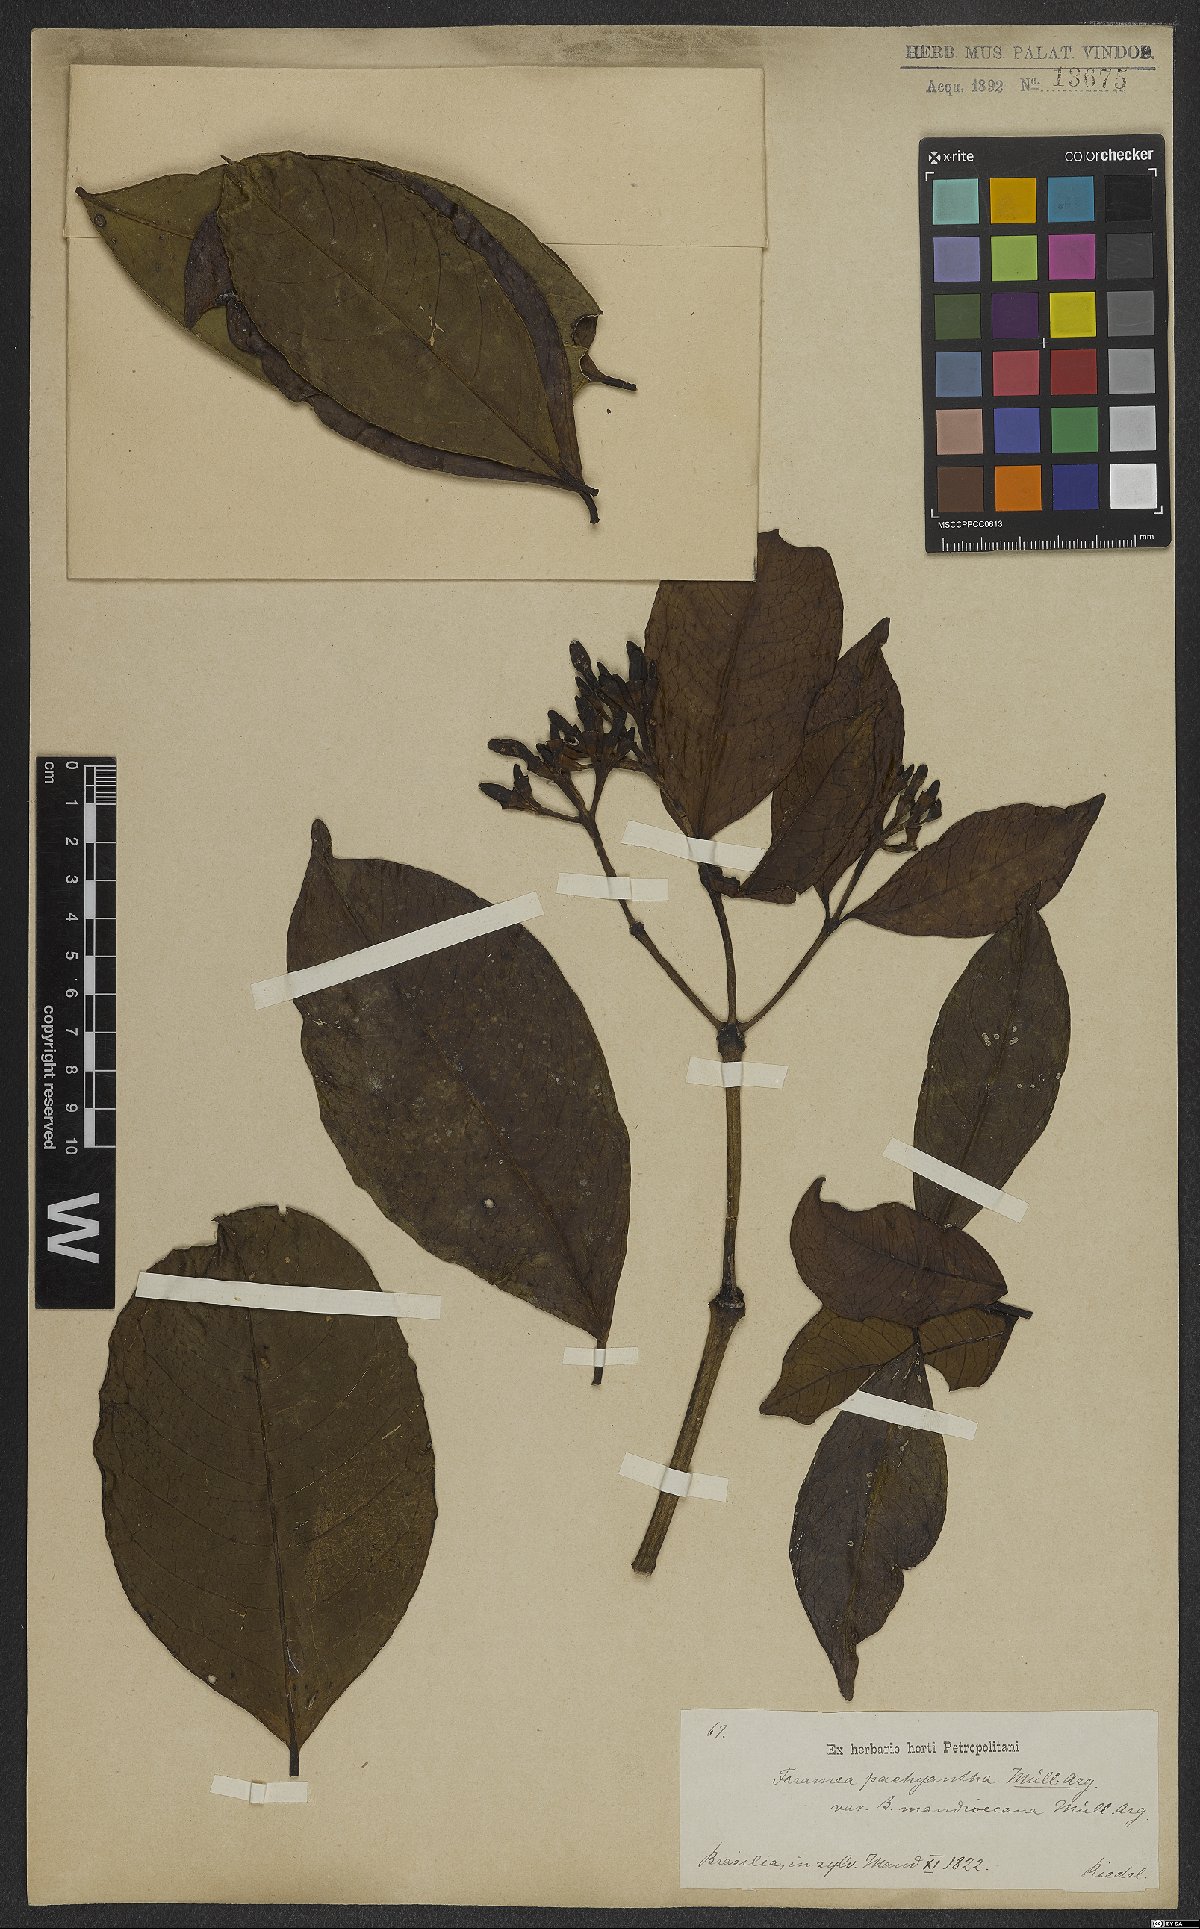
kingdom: Plantae
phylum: Tracheophyta
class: Magnoliopsida
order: Gentianales
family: Rubiaceae
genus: Faramea
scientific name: Faramea pachyantha
